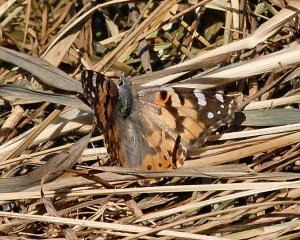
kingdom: Animalia
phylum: Arthropoda
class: Insecta
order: Lepidoptera
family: Nymphalidae
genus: Vanessa
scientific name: Vanessa cardui
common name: Painted Lady
